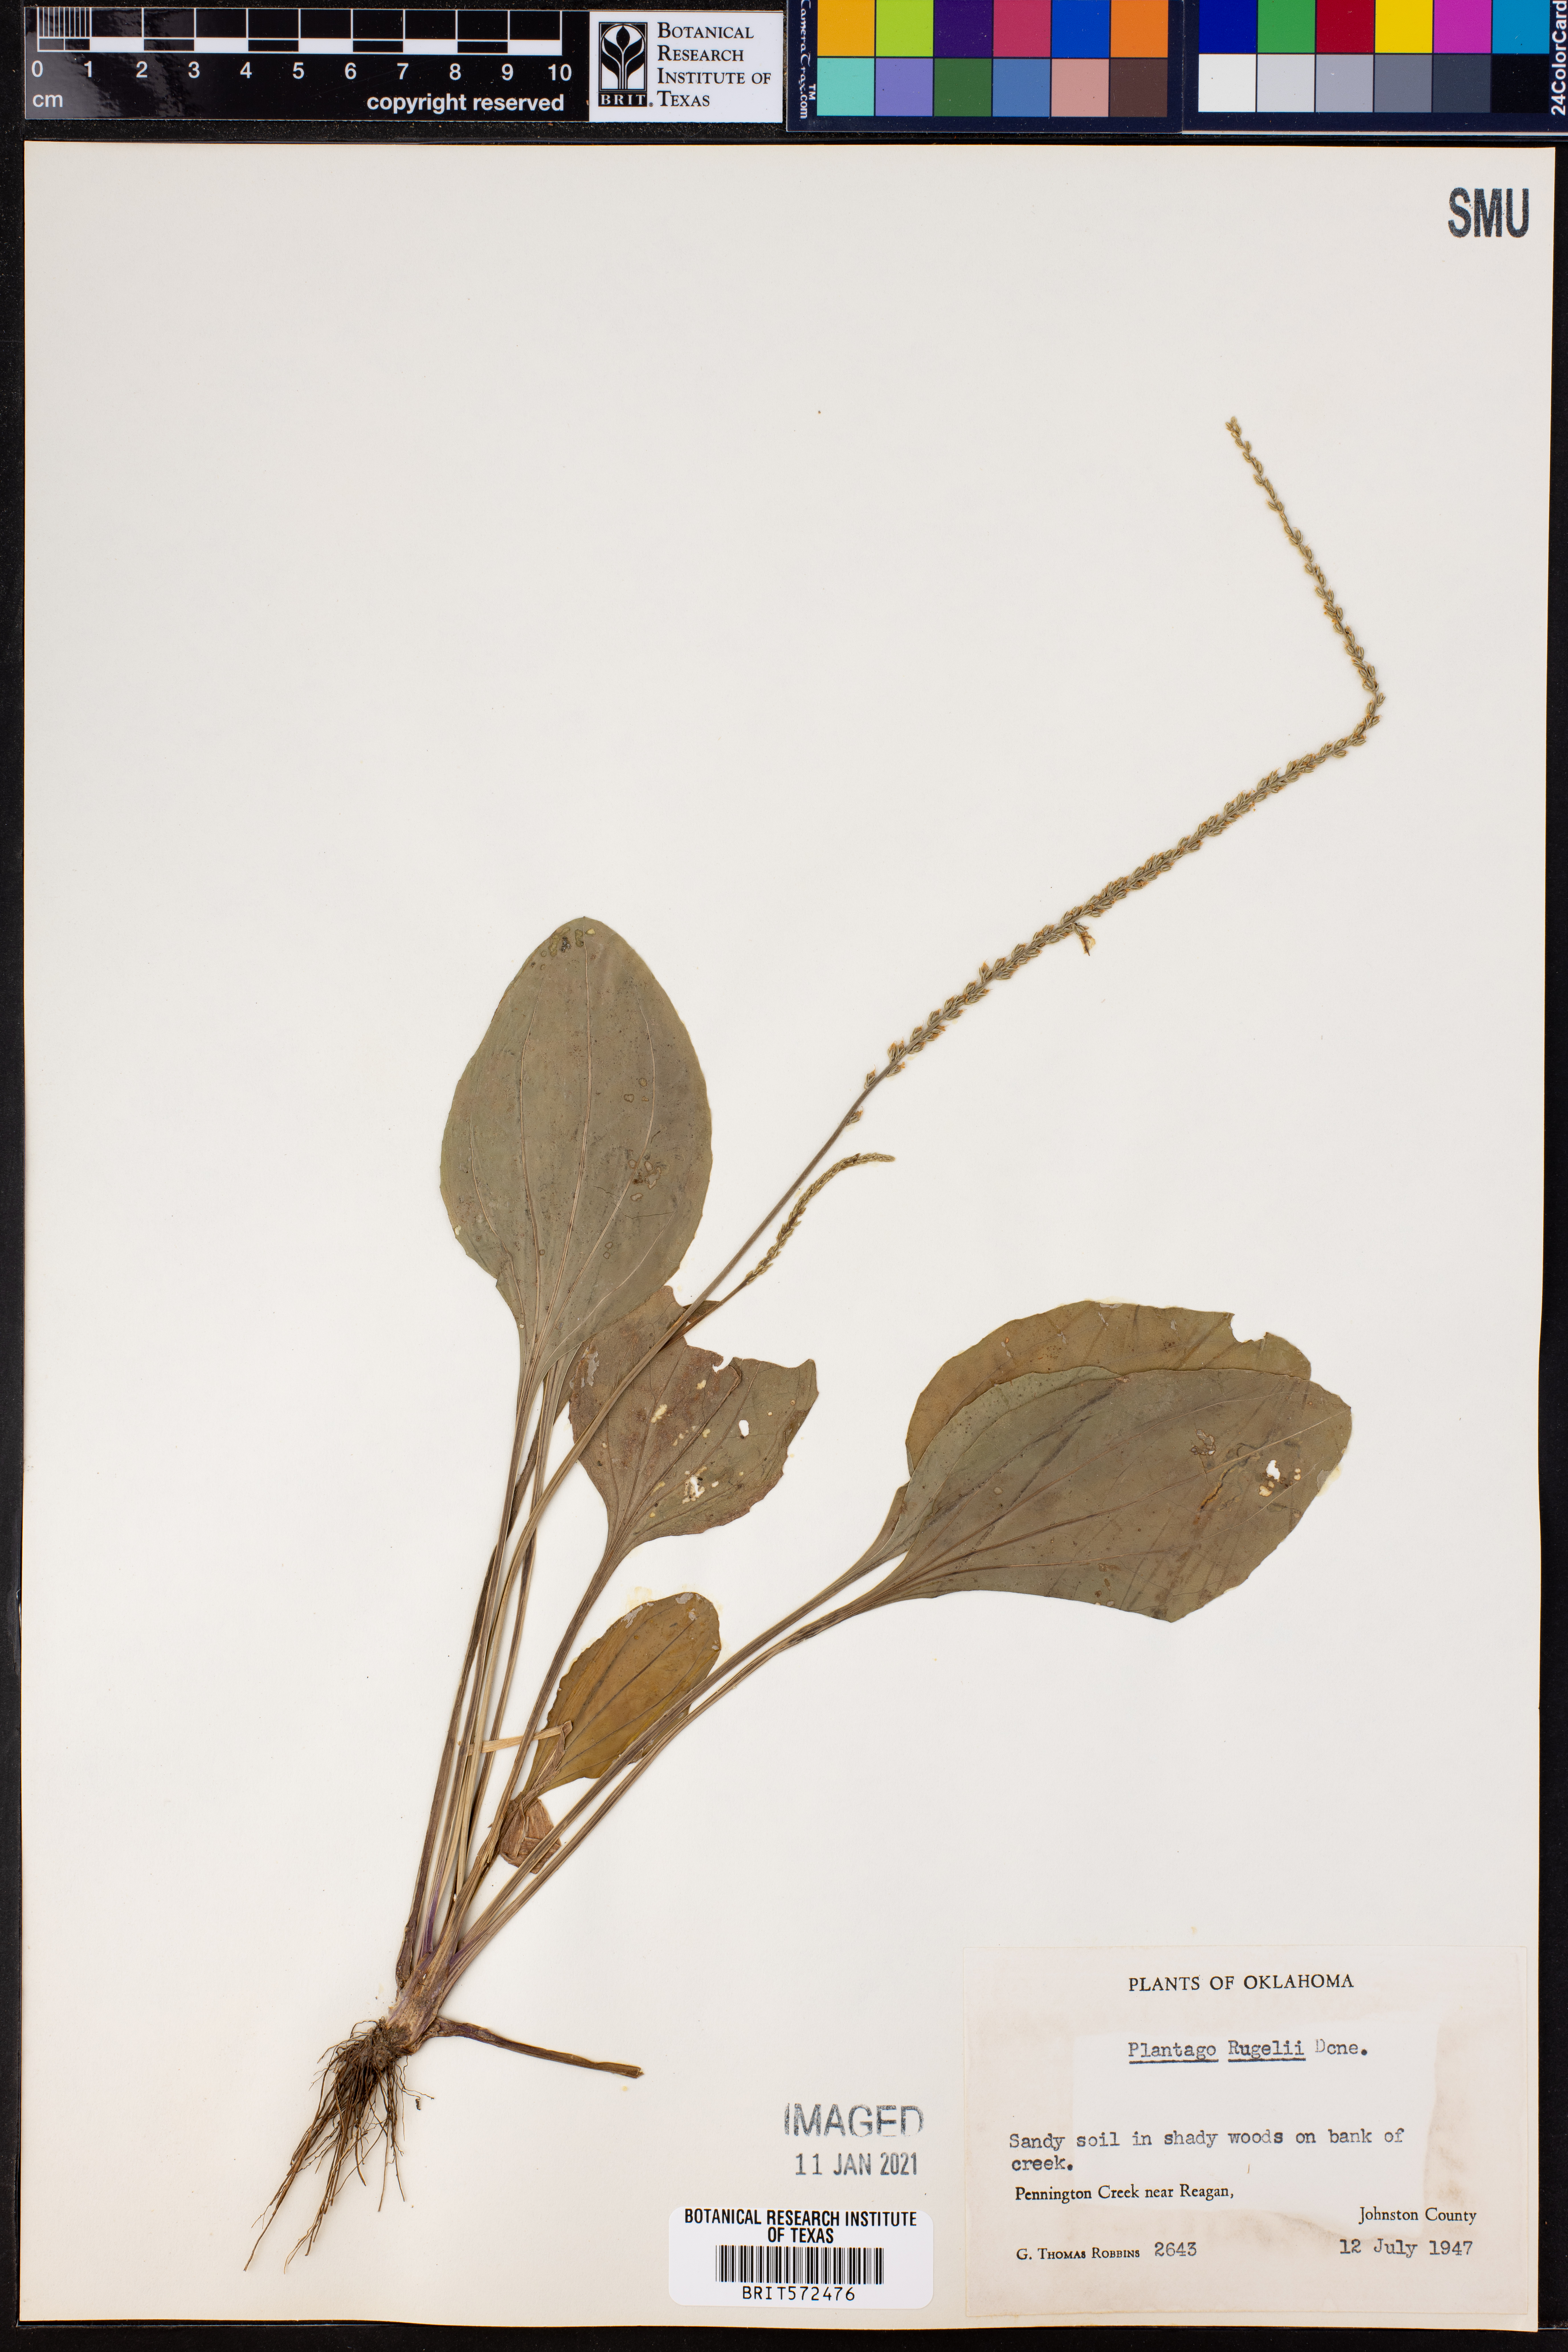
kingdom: Plantae
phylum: Tracheophyta
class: Magnoliopsida
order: Lamiales
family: Plantaginaceae
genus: Plantago
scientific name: Plantago rugelii
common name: American plantain
